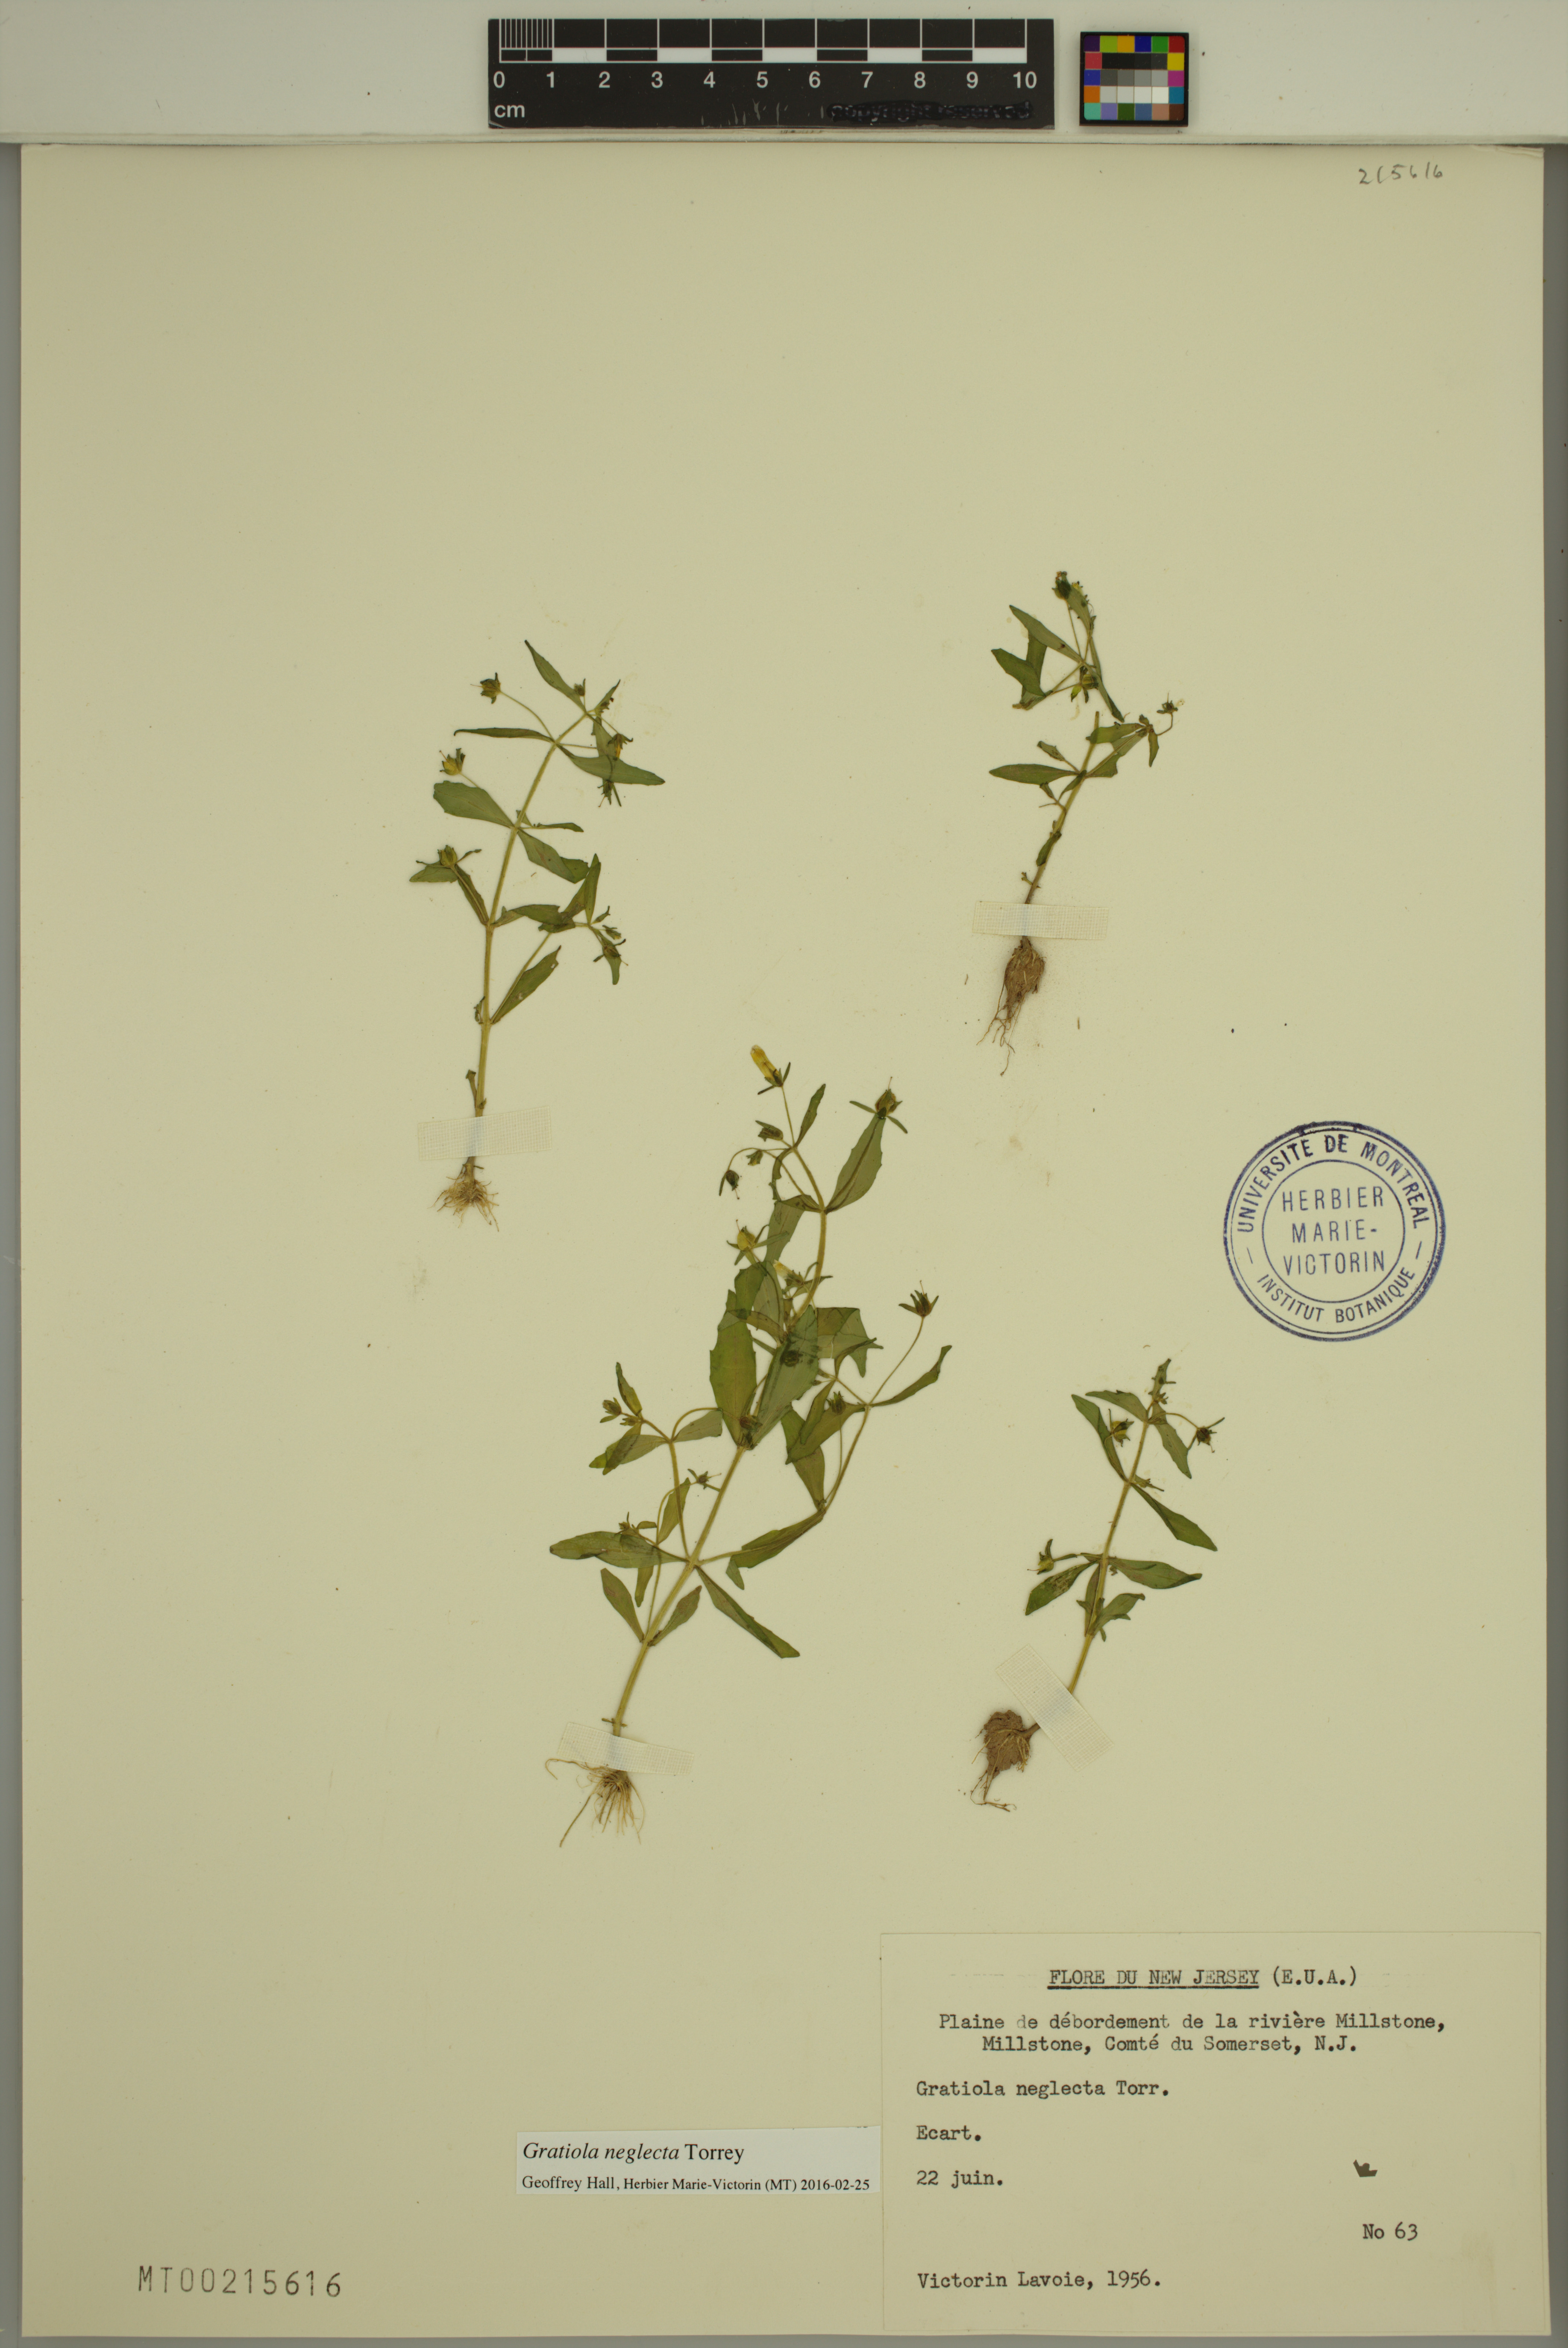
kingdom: Plantae
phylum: Tracheophyta
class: Magnoliopsida
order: Lamiales
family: Plantaginaceae
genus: Gratiola
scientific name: Gratiola neglecta
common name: American hedge-hyssop
